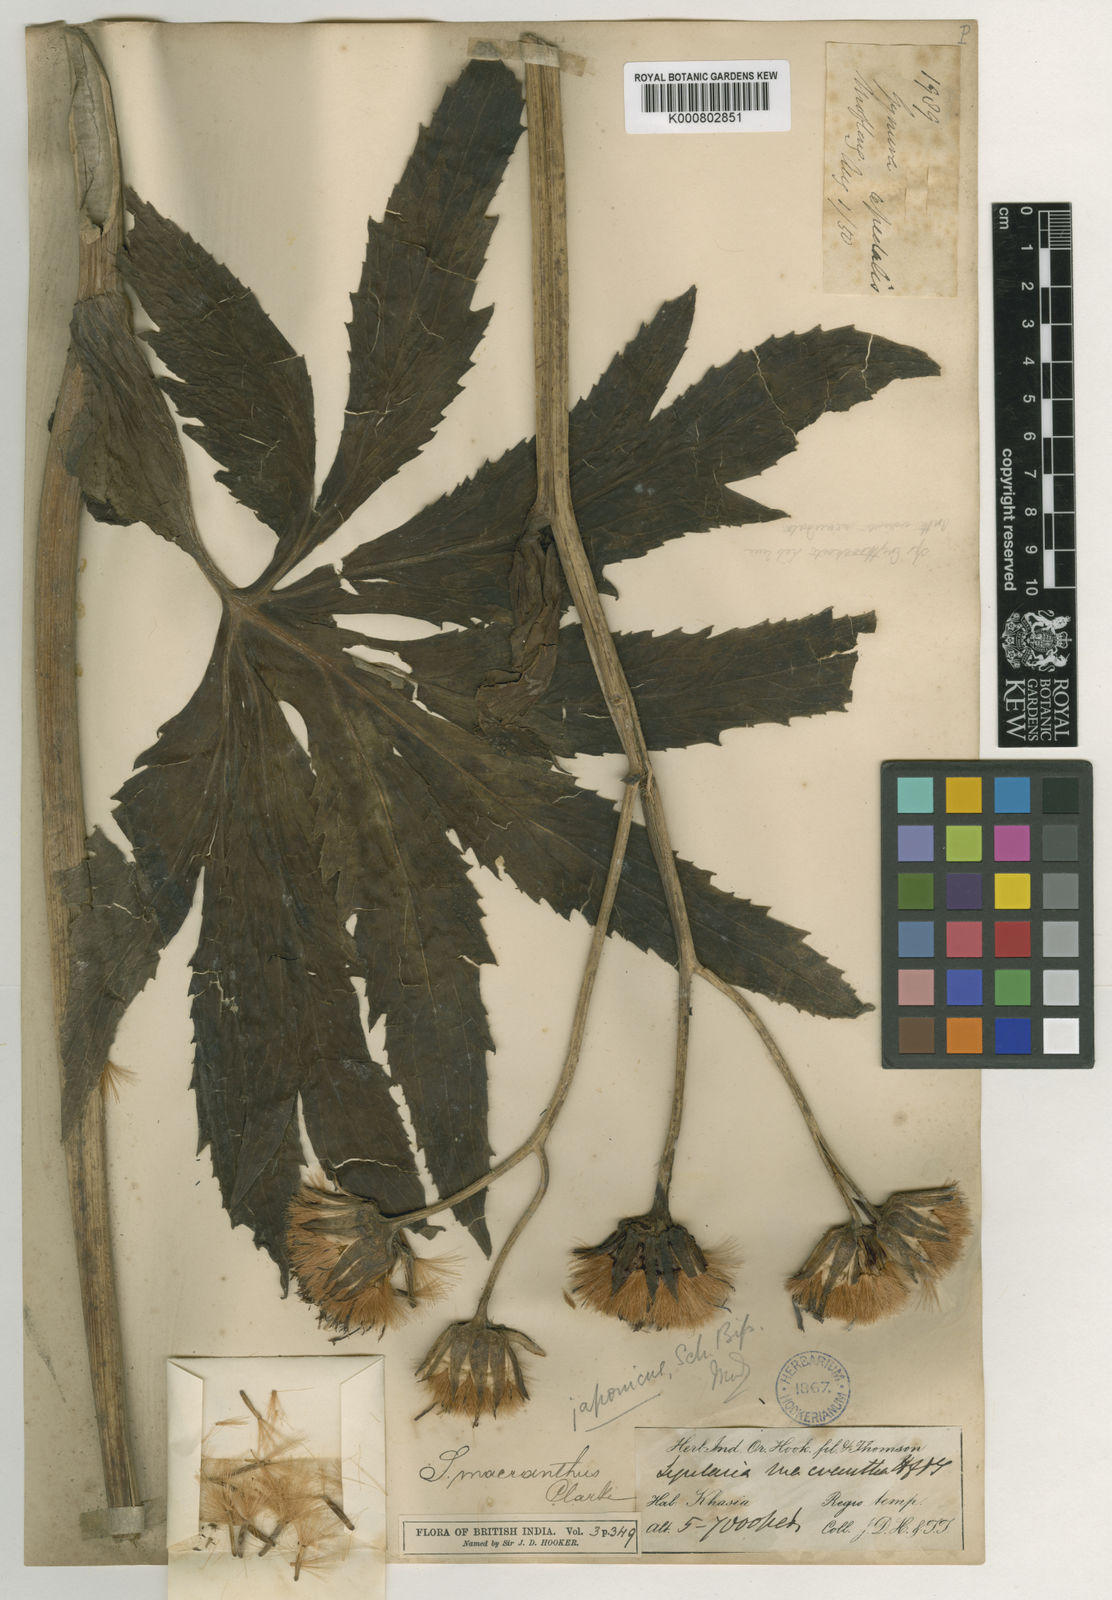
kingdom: Plantae
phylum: Tracheophyta
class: Magnoliopsida
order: Asterales
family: Asteraceae
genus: Ligularia
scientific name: Ligularia japonica
